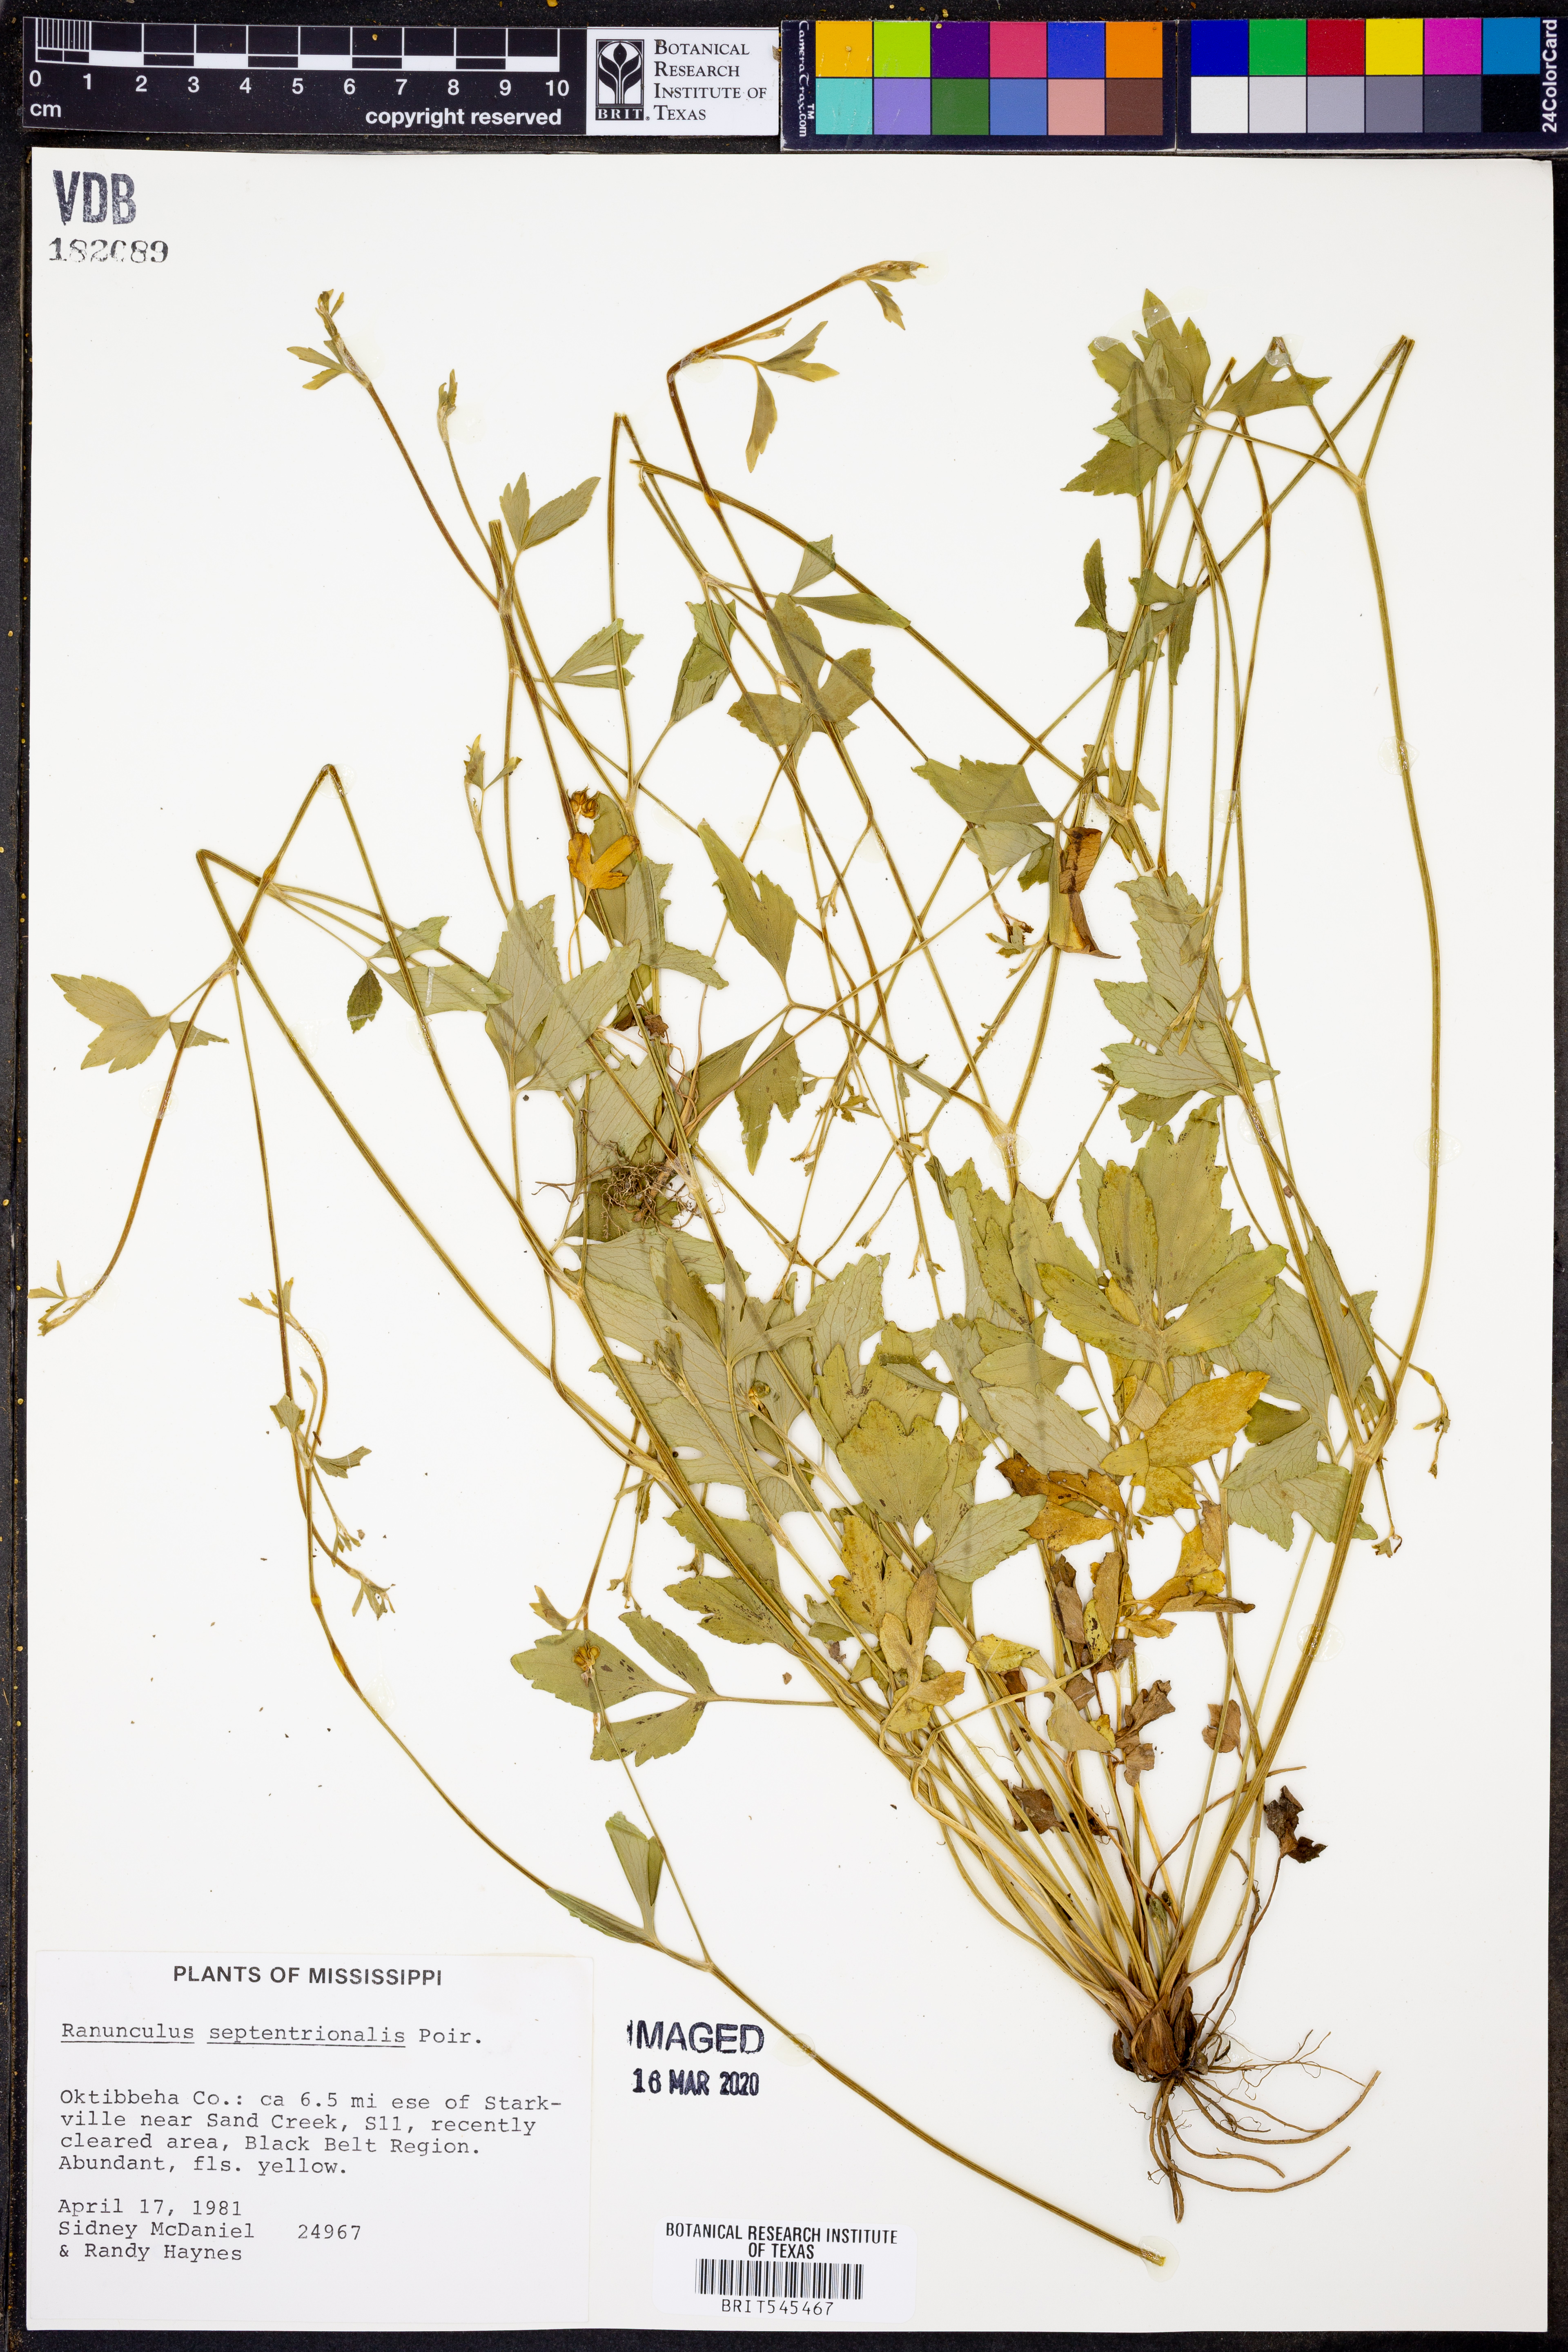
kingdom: Plantae
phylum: Tracheophyta
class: Magnoliopsida
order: Ranunculales
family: Ranunculaceae
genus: Ranunculus
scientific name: Ranunculus hispidus
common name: Bristly buttercup
